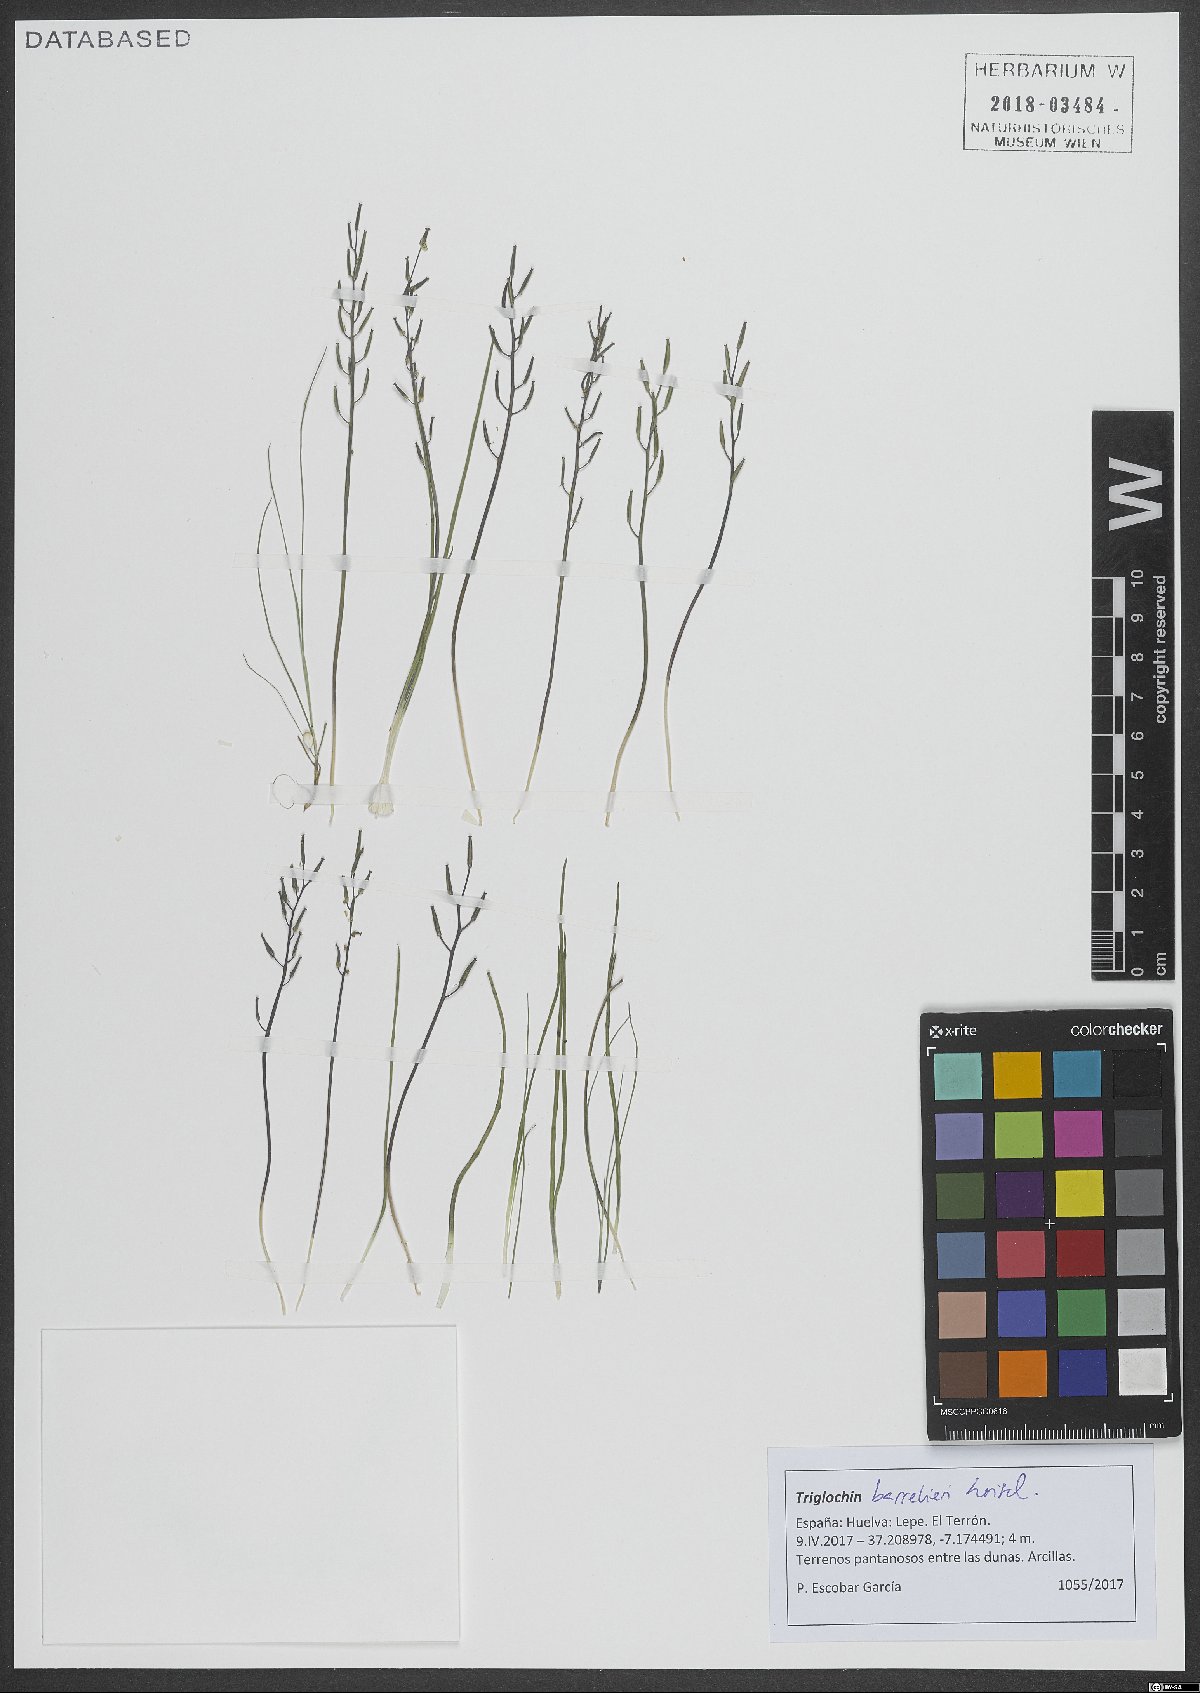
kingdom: Plantae
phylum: Tracheophyta
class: Liliopsida
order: Alismatales
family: Juncaginaceae
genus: Triglochin
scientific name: Triglochin barrelieri
